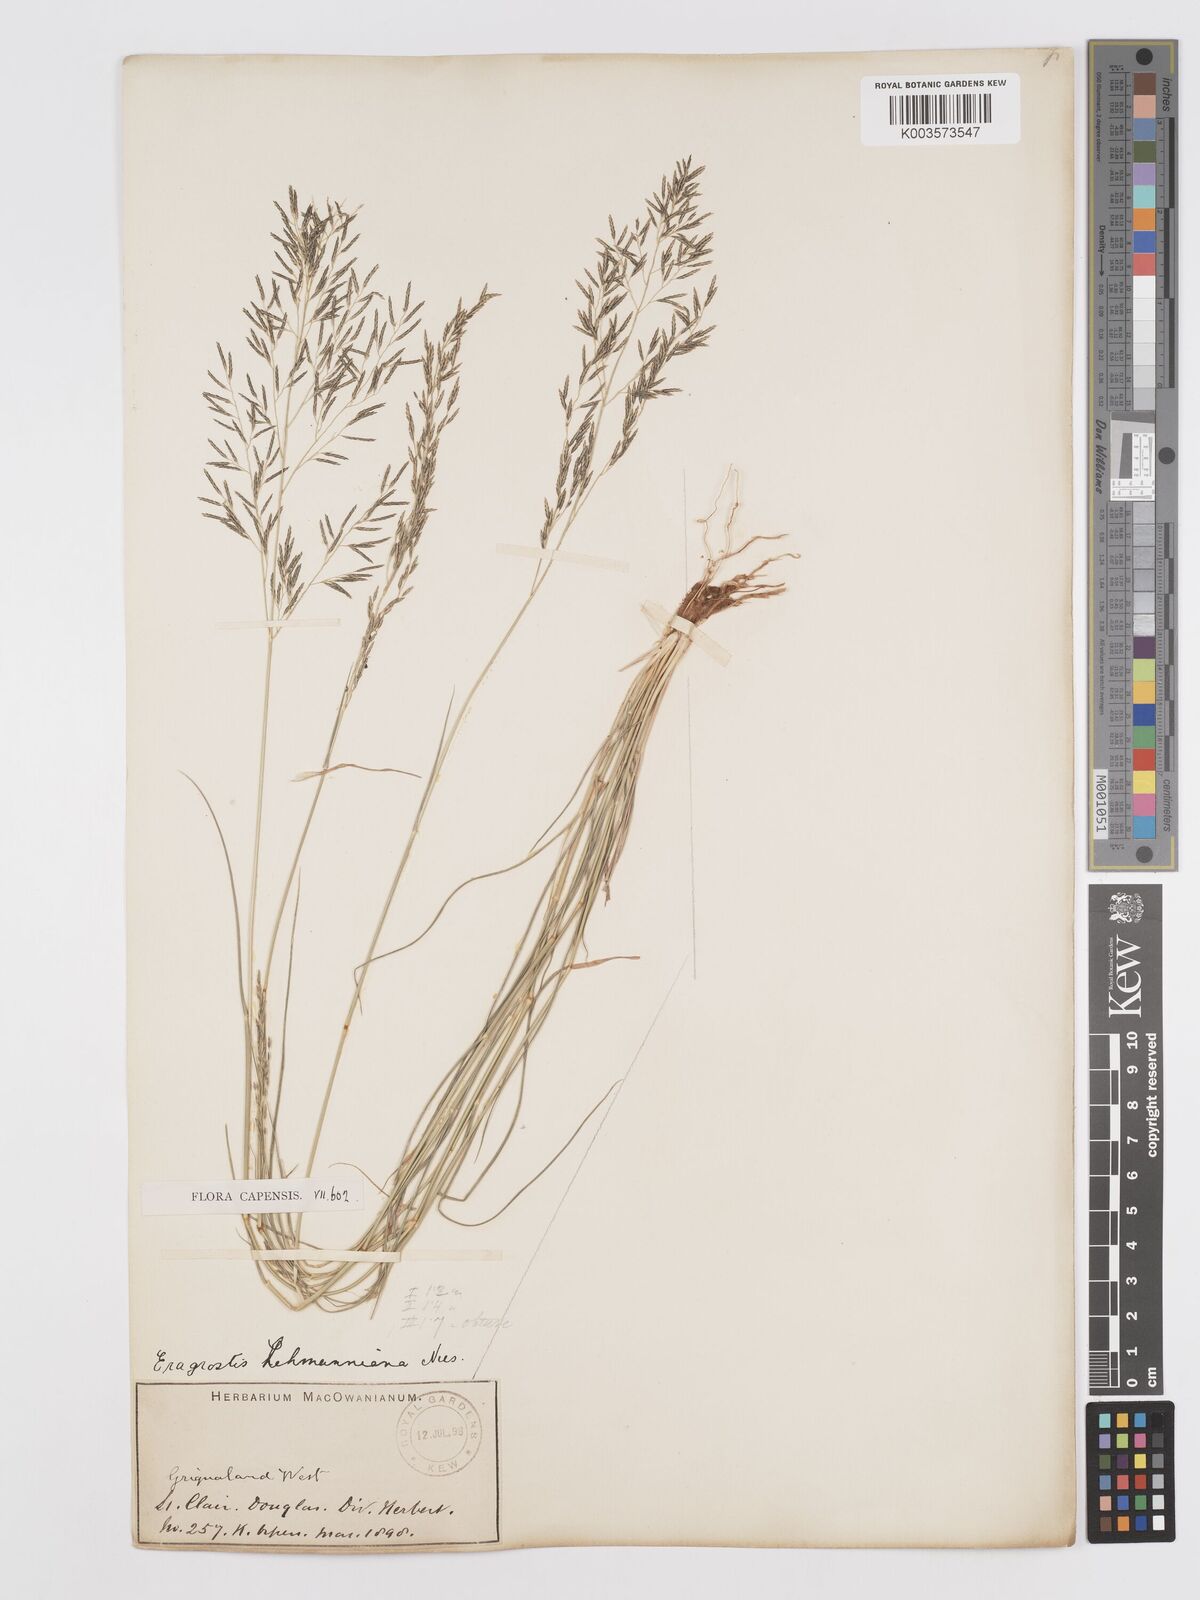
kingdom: Plantae
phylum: Tracheophyta
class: Liliopsida
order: Poales
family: Poaceae
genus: Eragrostis
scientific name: Eragrostis lehmanniana
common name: Lehmann lovegrass
